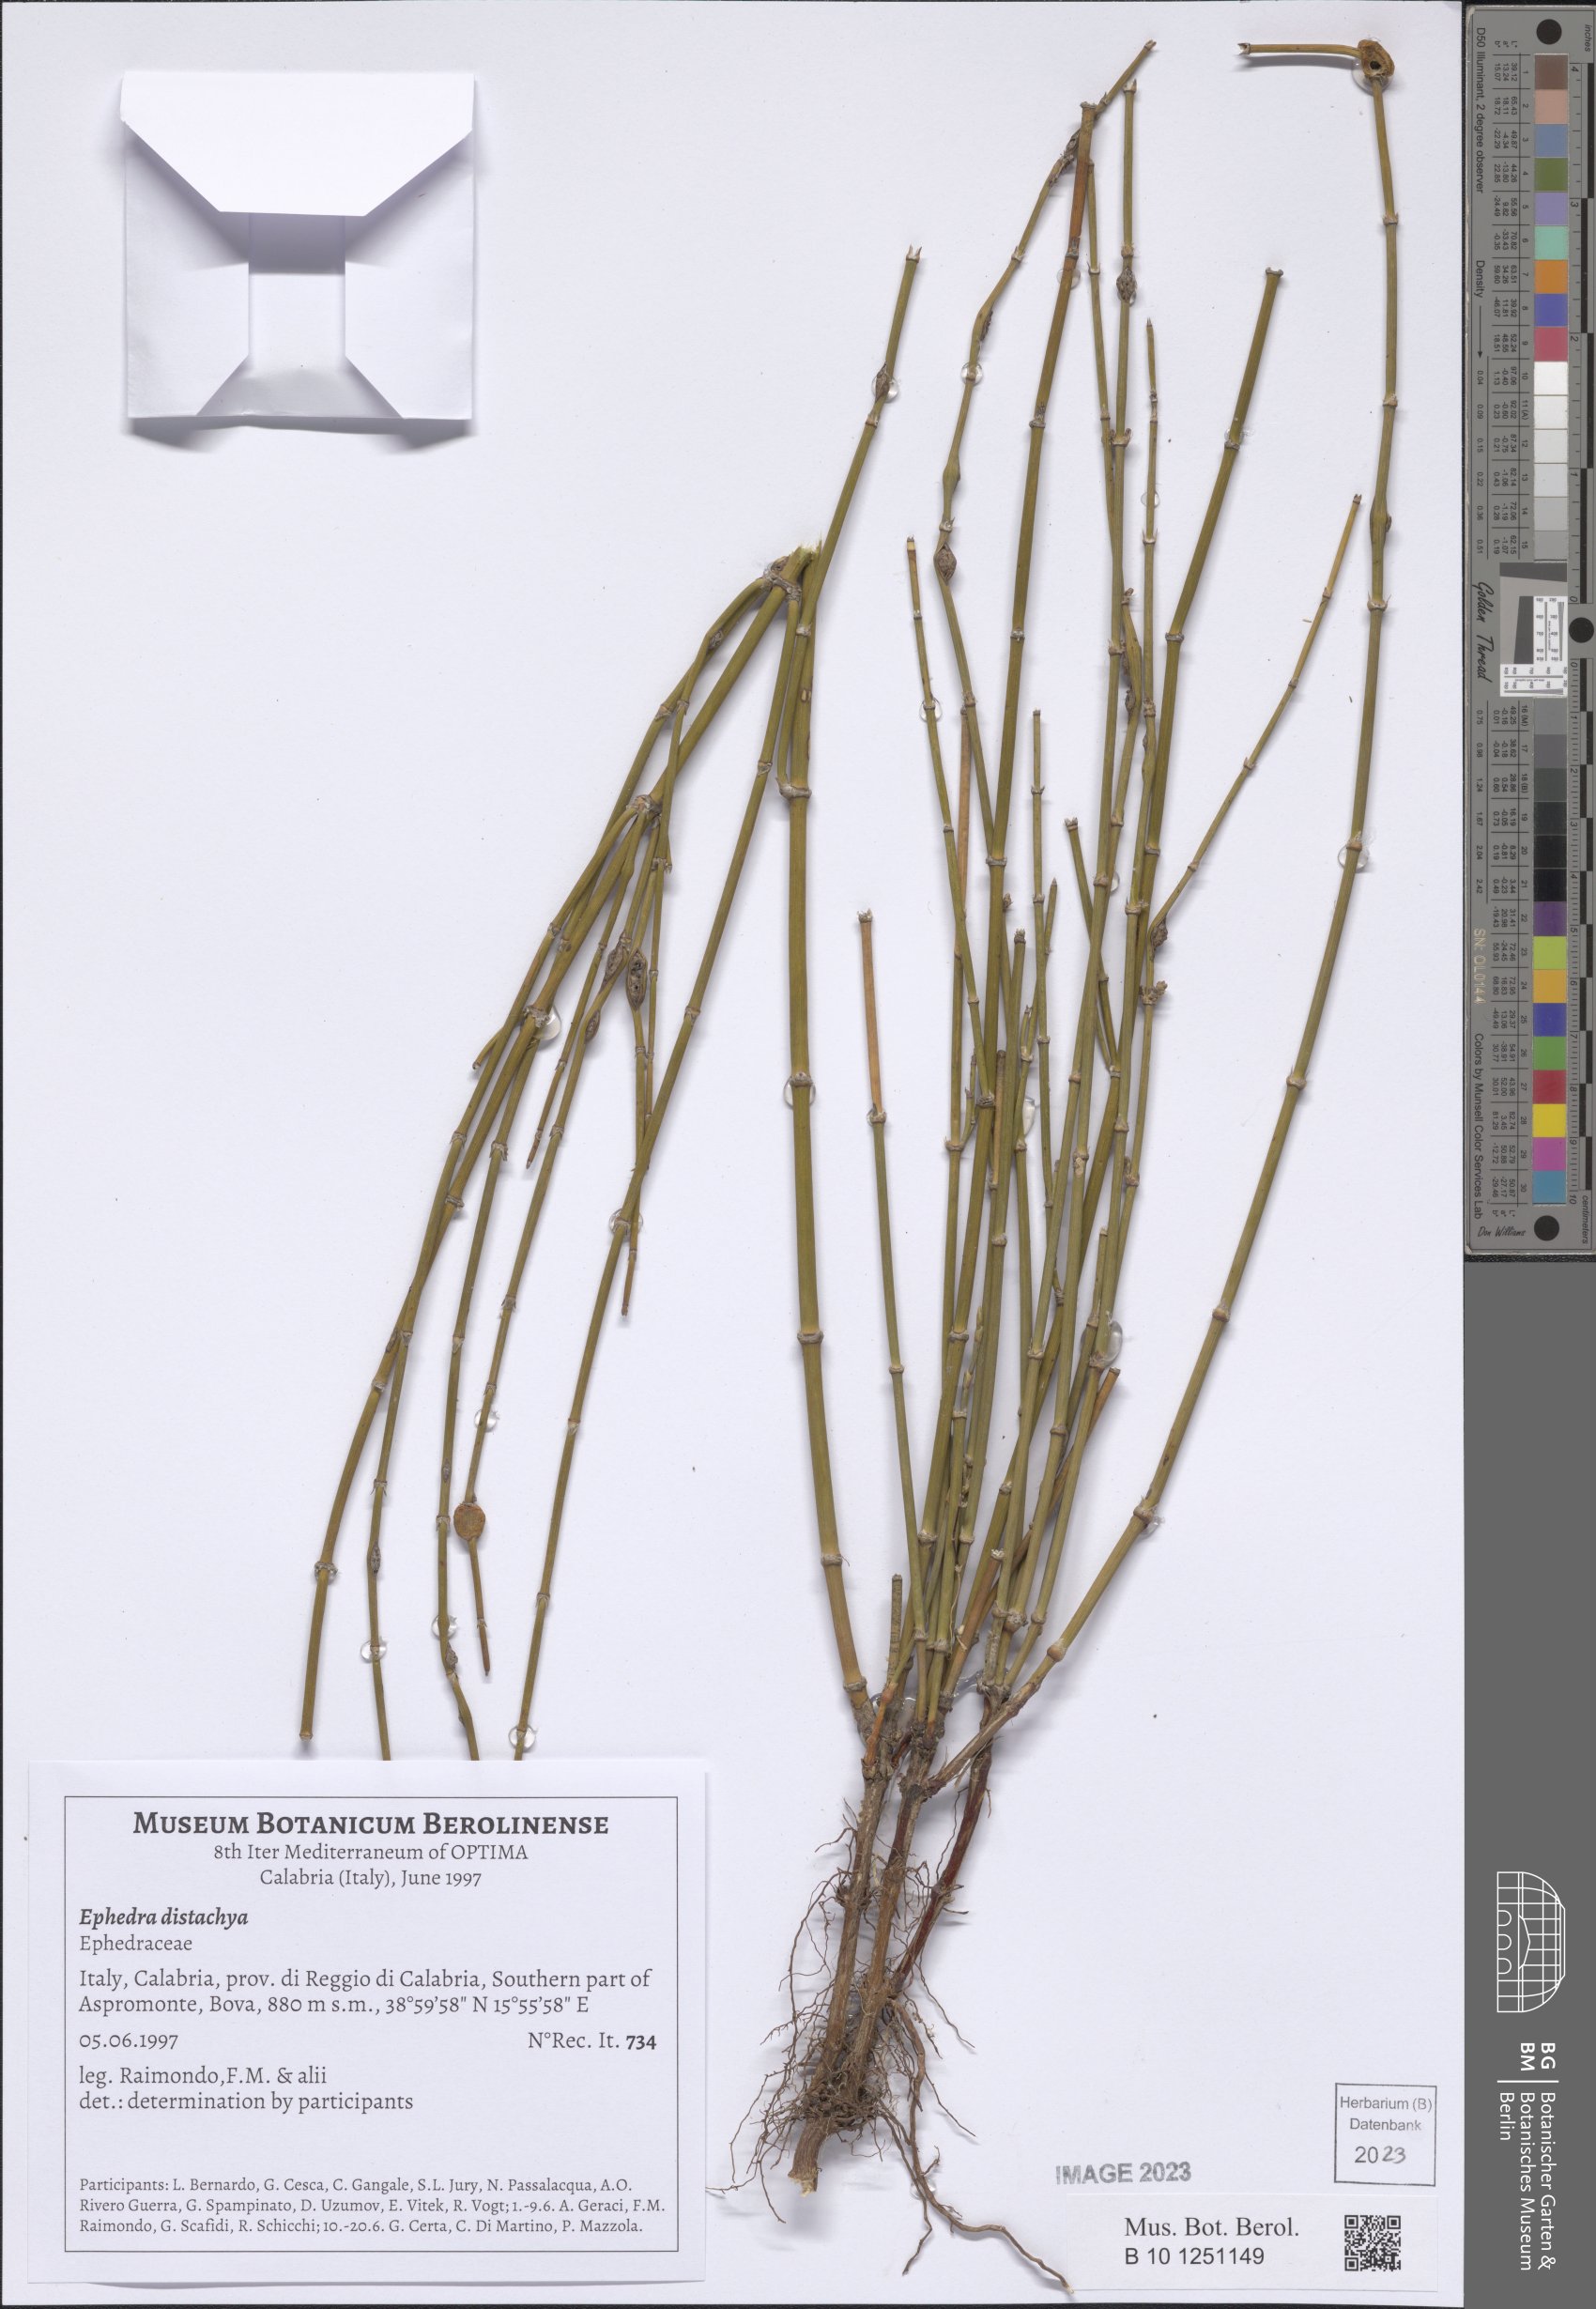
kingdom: Plantae
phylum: Tracheophyta
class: Gnetopsida
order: Ephedrales
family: Ephedraceae
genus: Ephedra
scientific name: Ephedra distachya
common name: Sea grape
